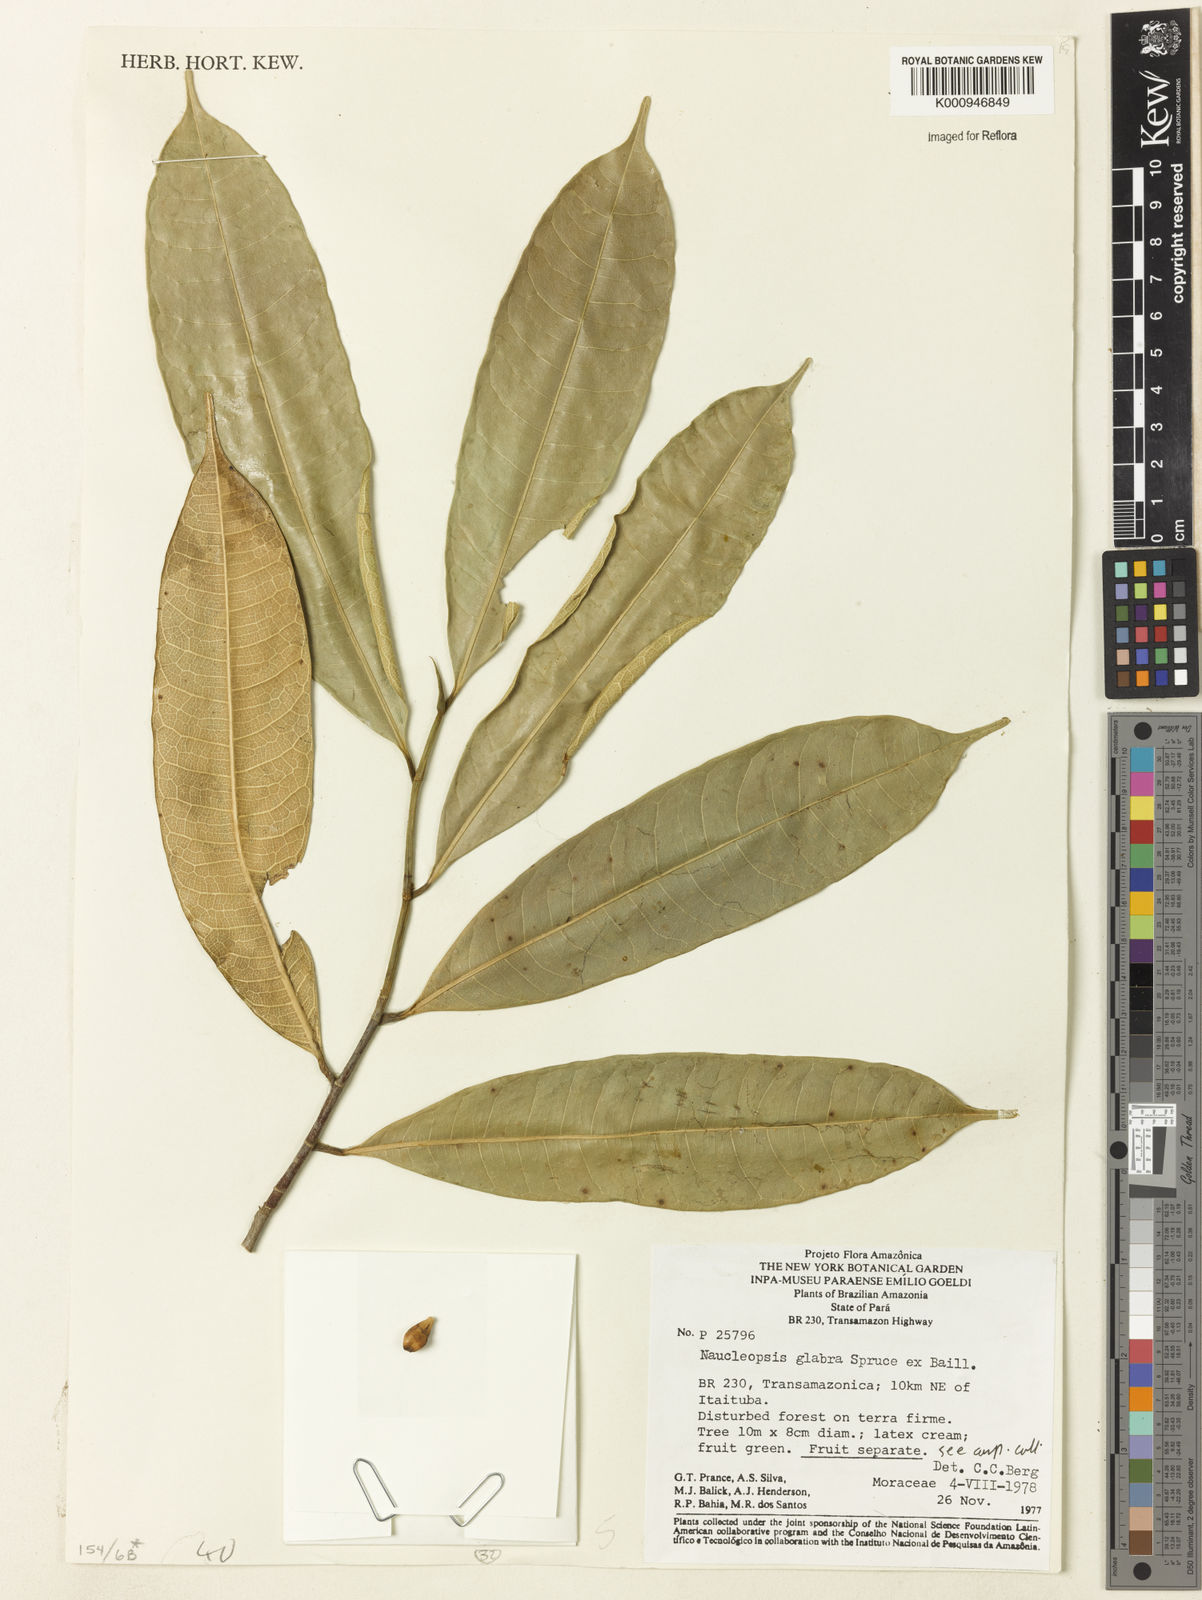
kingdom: Plantae
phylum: Tracheophyta
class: Magnoliopsida
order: Rosales
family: Moraceae
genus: Naucleopsis
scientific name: Naucleopsis glabra
